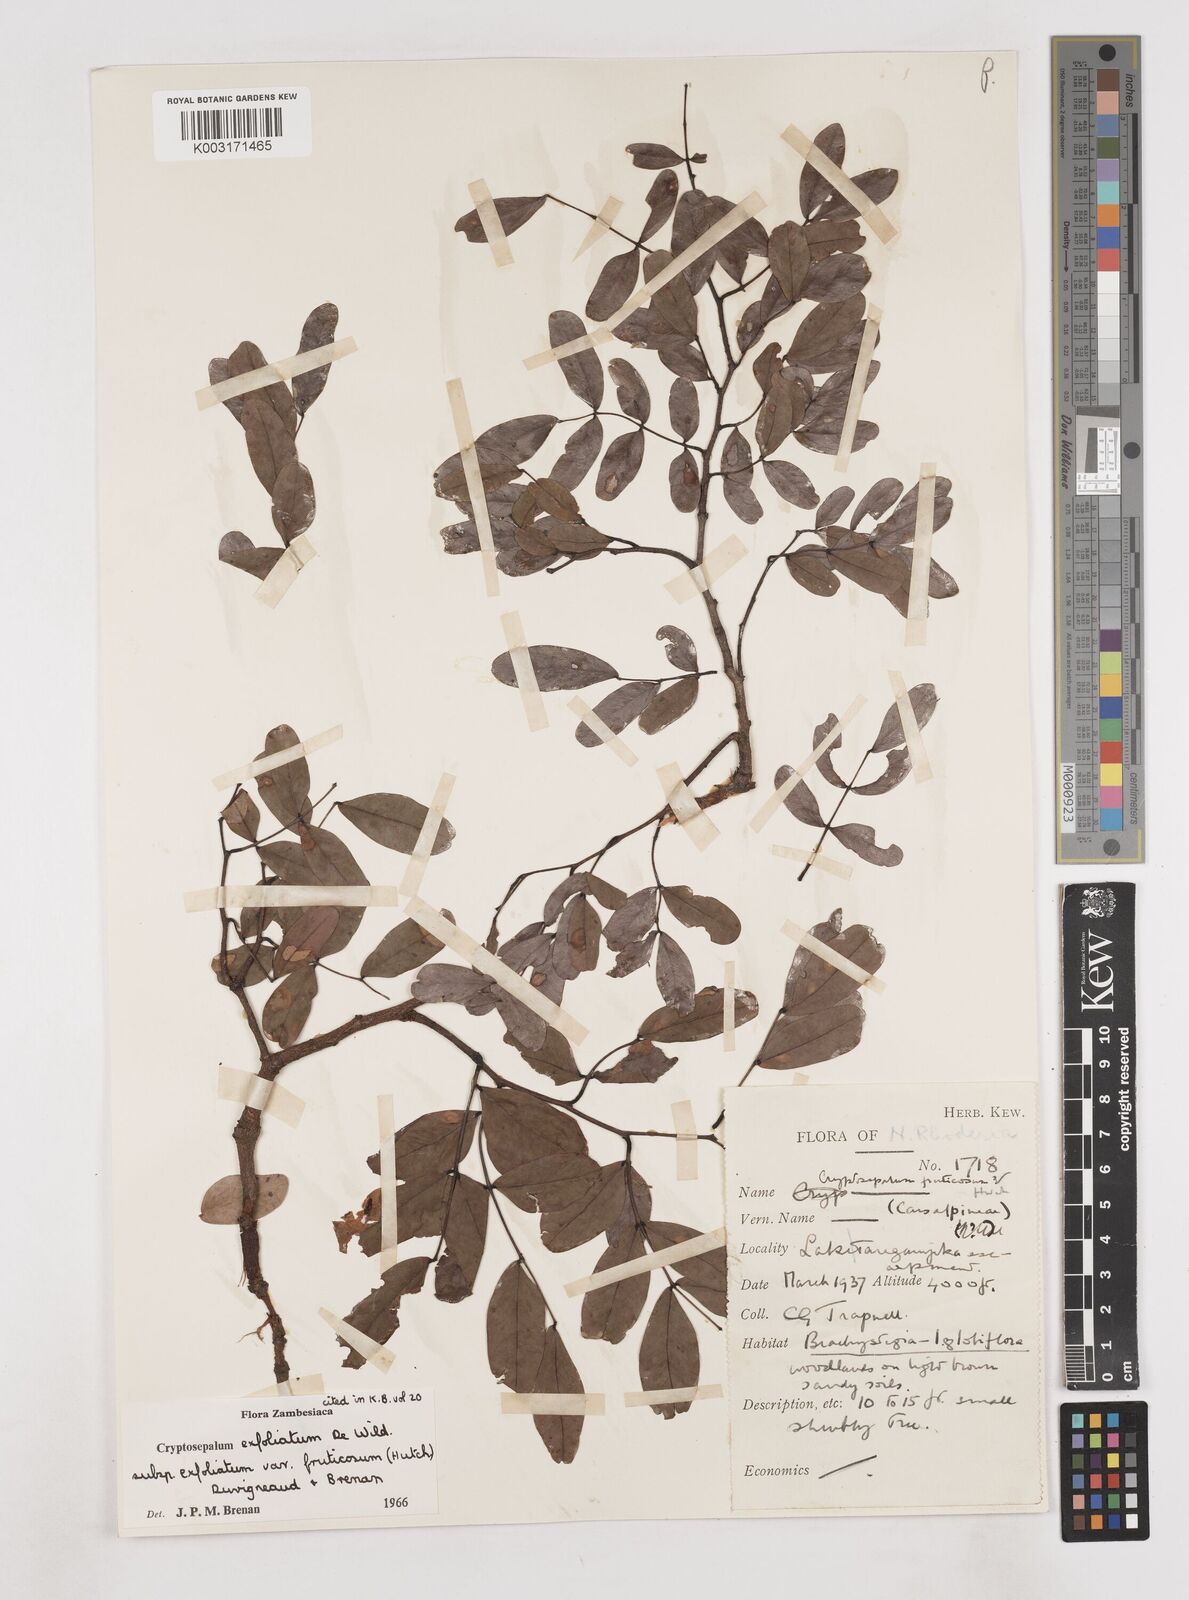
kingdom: Plantae
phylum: Tracheophyta
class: Magnoliopsida
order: Fabales
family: Fabaceae
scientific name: Fabaceae
